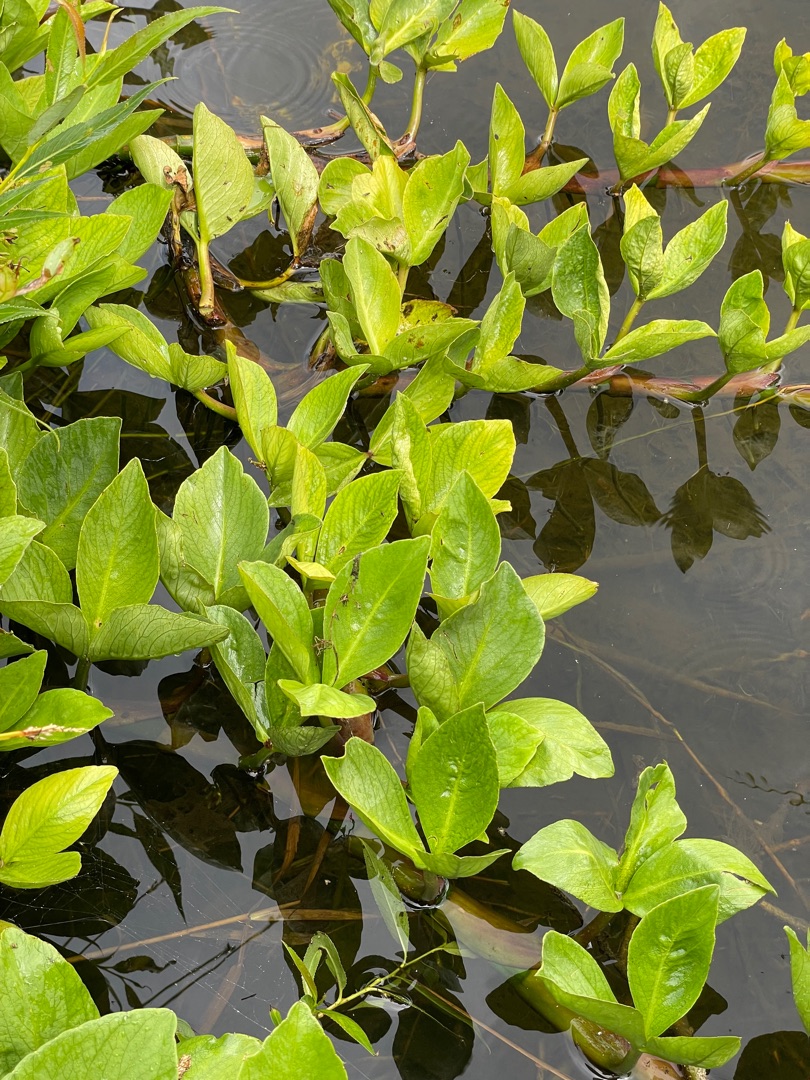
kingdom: Plantae
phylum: Tracheophyta
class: Magnoliopsida
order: Asterales
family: Menyanthaceae
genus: Menyanthes
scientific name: Menyanthes trifoliata
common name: Bukkeblad
